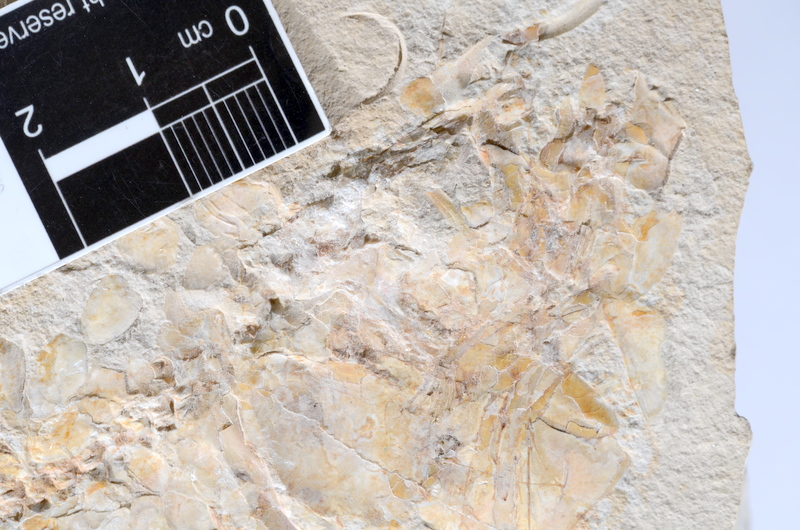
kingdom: Animalia
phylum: Chordata
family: Allothrissopidae
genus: Allothrissops
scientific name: Allothrissops
